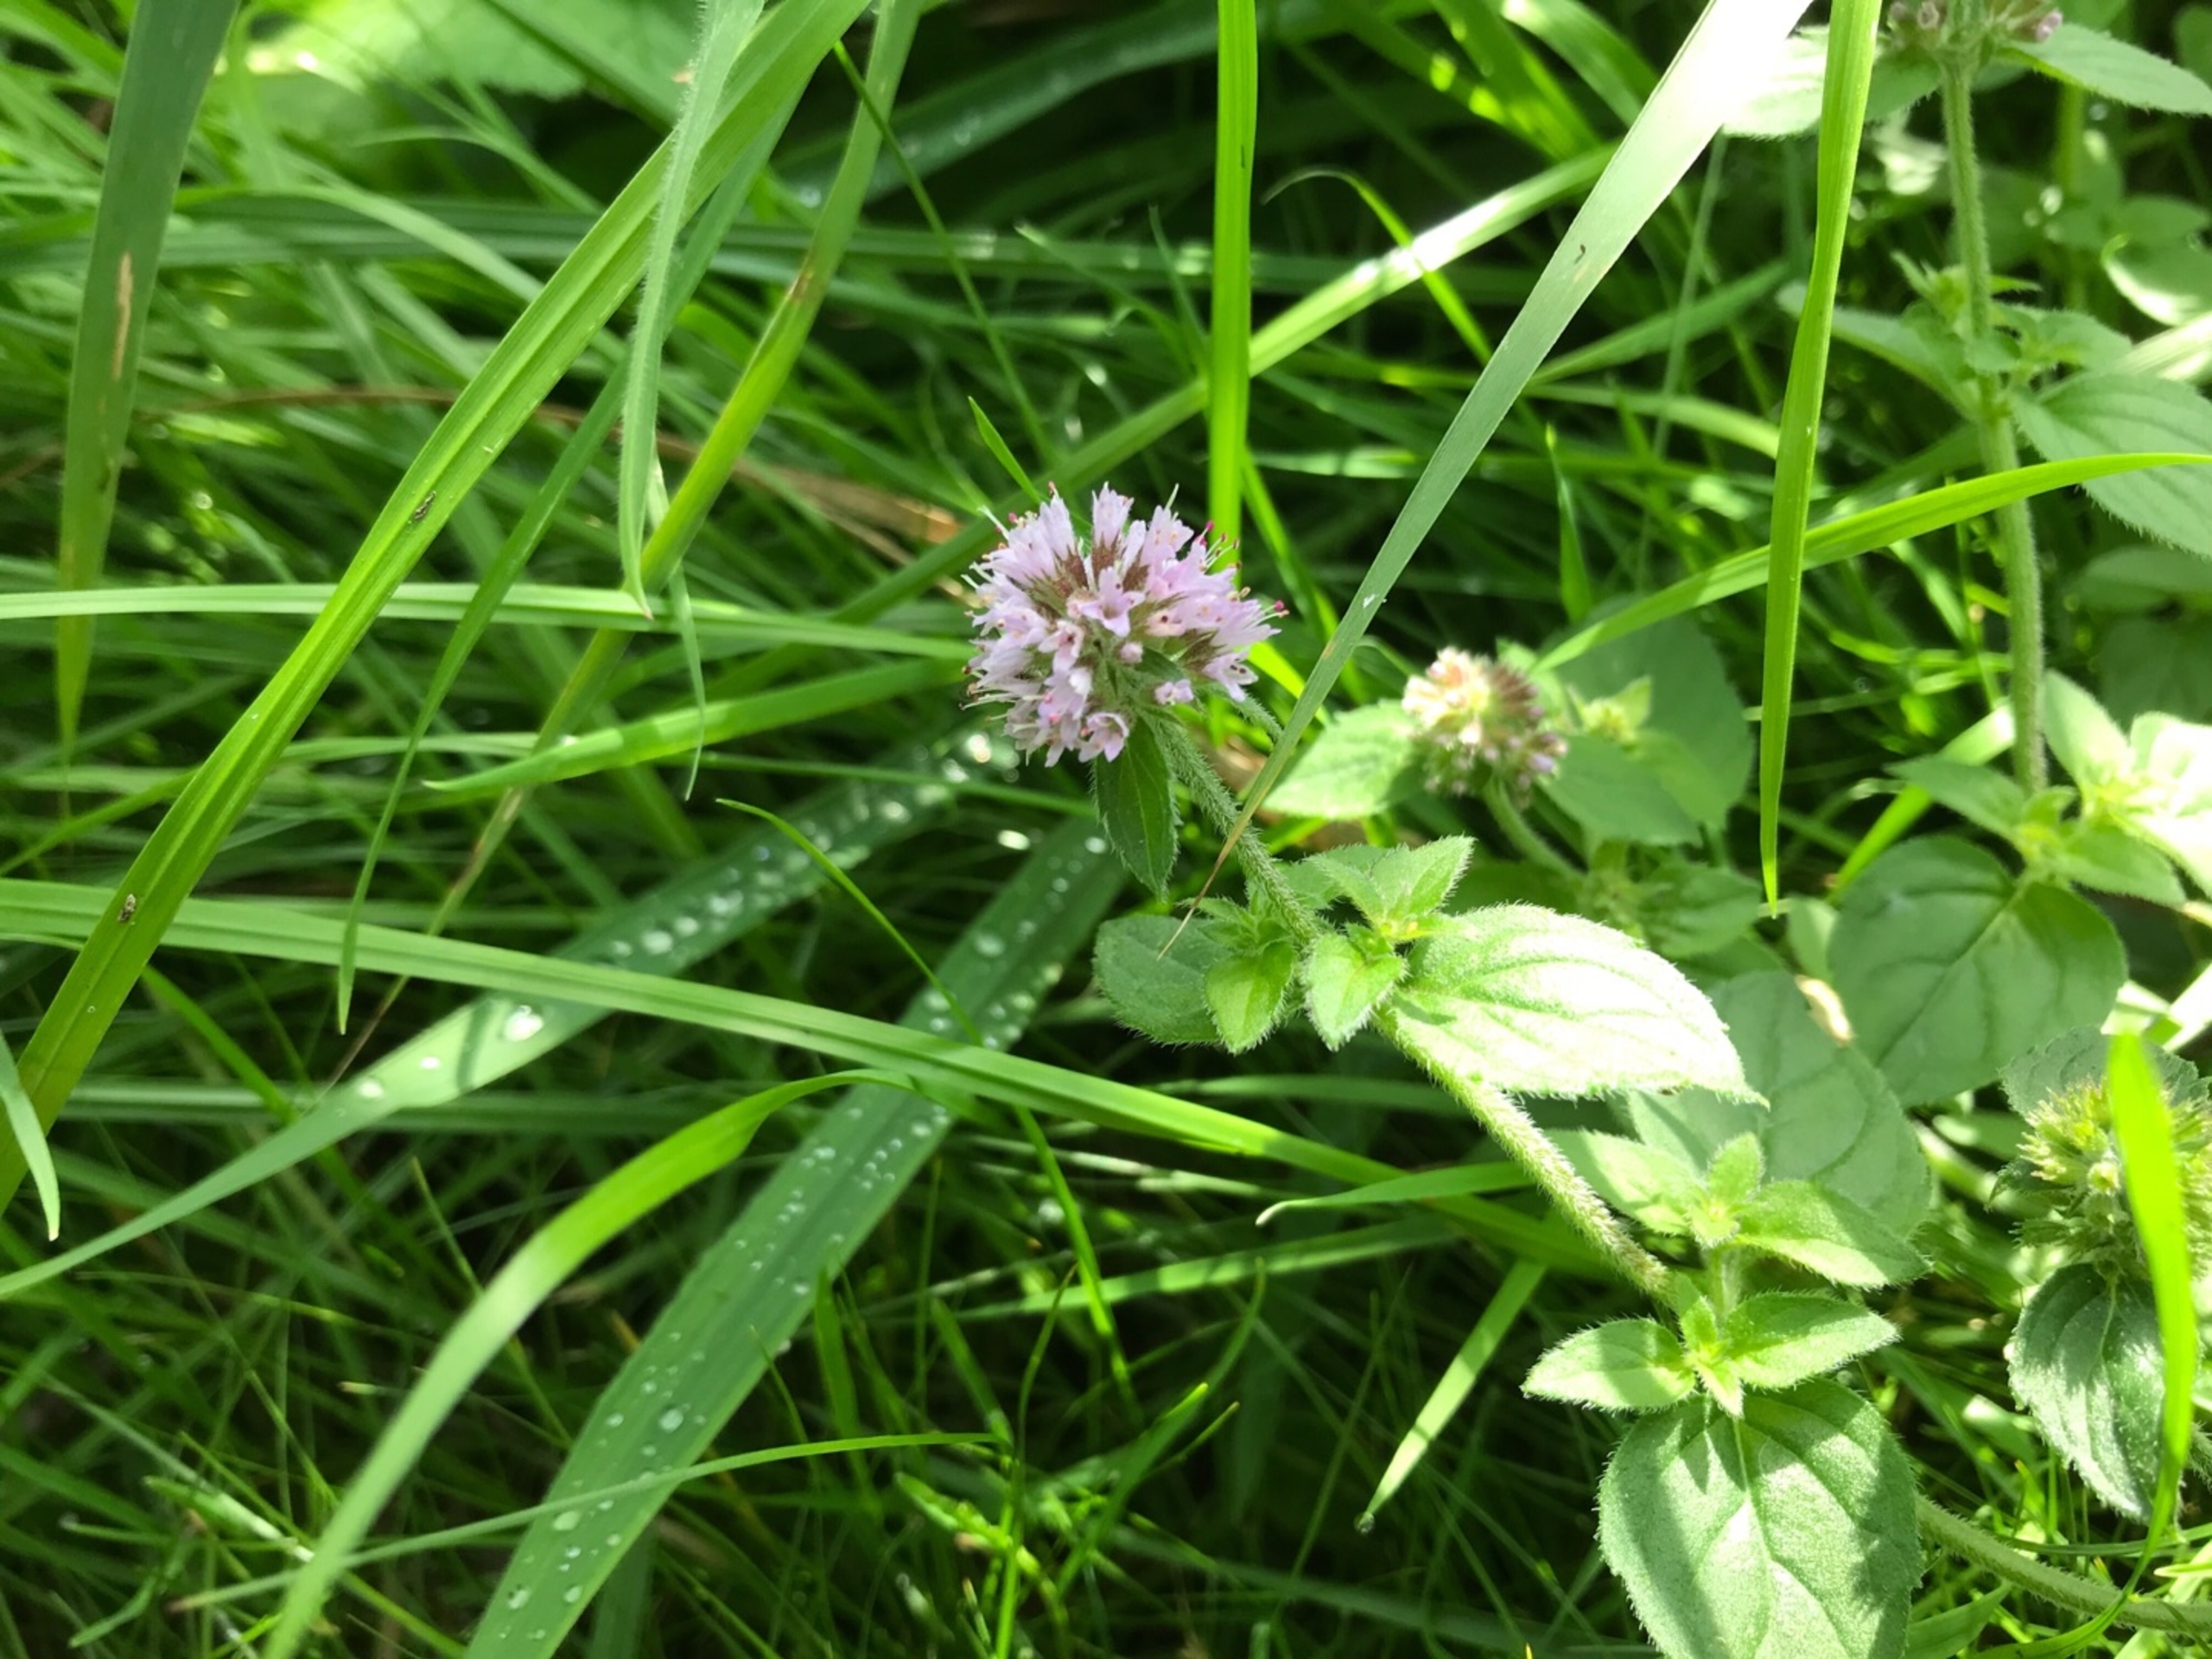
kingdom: Plantae
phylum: Tracheophyta
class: Magnoliopsida
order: Lamiales
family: Lamiaceae
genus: Mentha
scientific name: Mentha aquatica
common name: Vand-mynte
